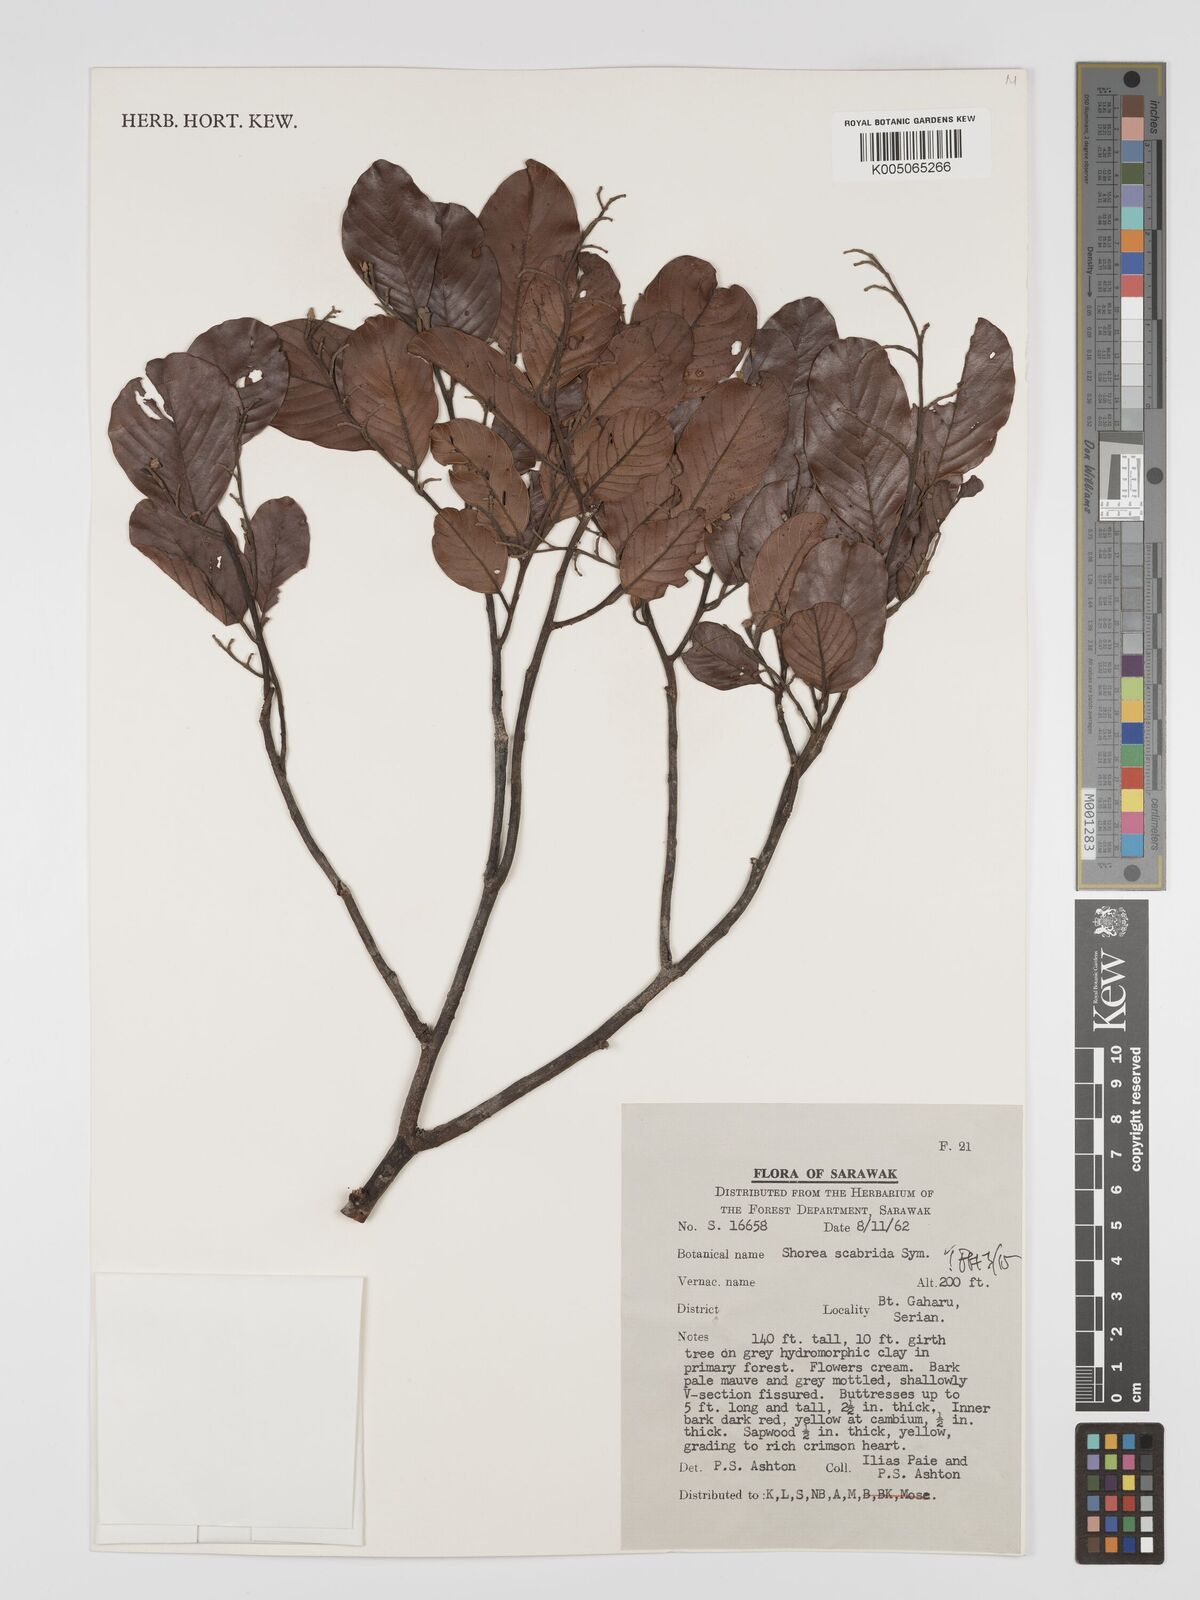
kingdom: Plantae
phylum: Tracheophyta
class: Magnoliopsida
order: Malvales
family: Dipterocarpaceae
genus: Shorea
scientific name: Shorea scabrida
